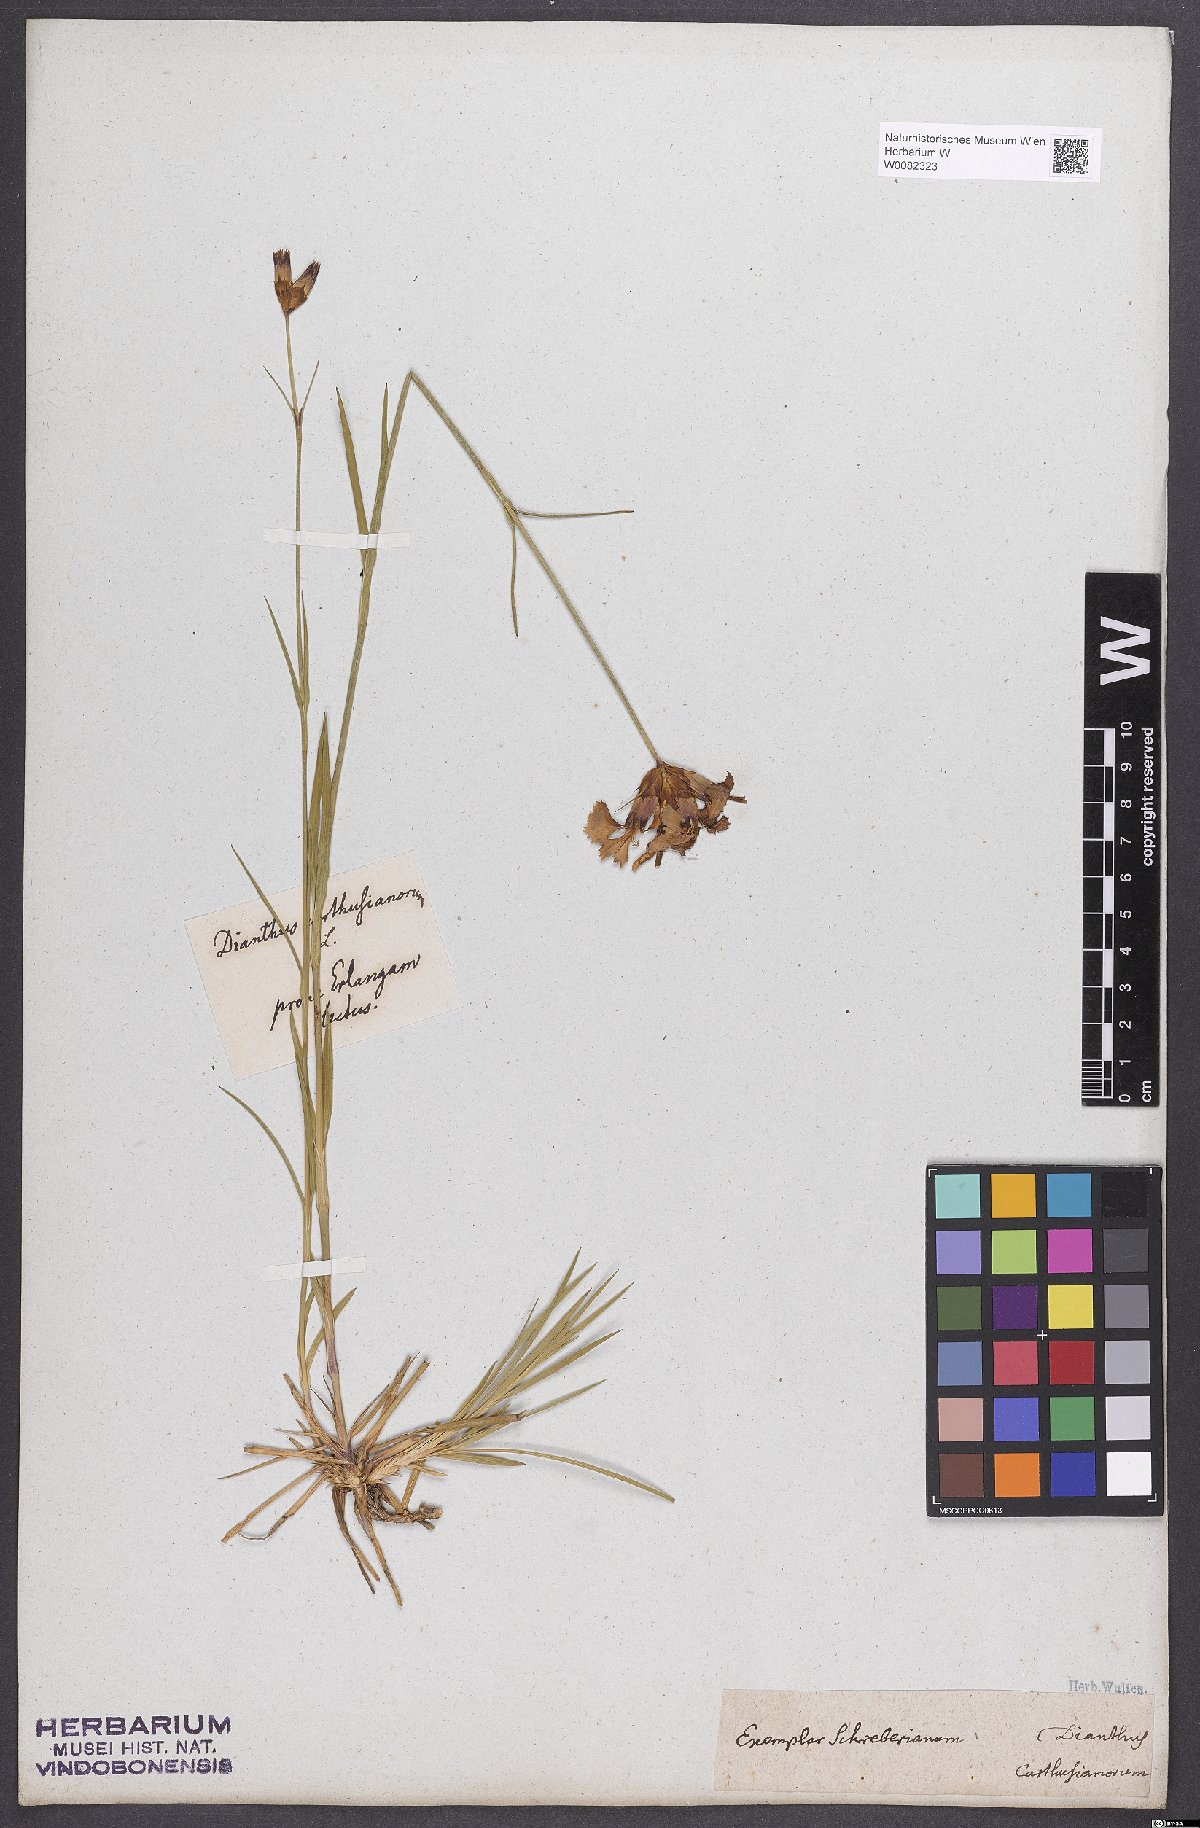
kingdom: Plantae
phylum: Tracheophyta
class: Magnoliopsida
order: Caryophyllales
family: Caryophyllaceae
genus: Dianthus
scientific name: Dianthus carthusianorum
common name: Carthusian pink
